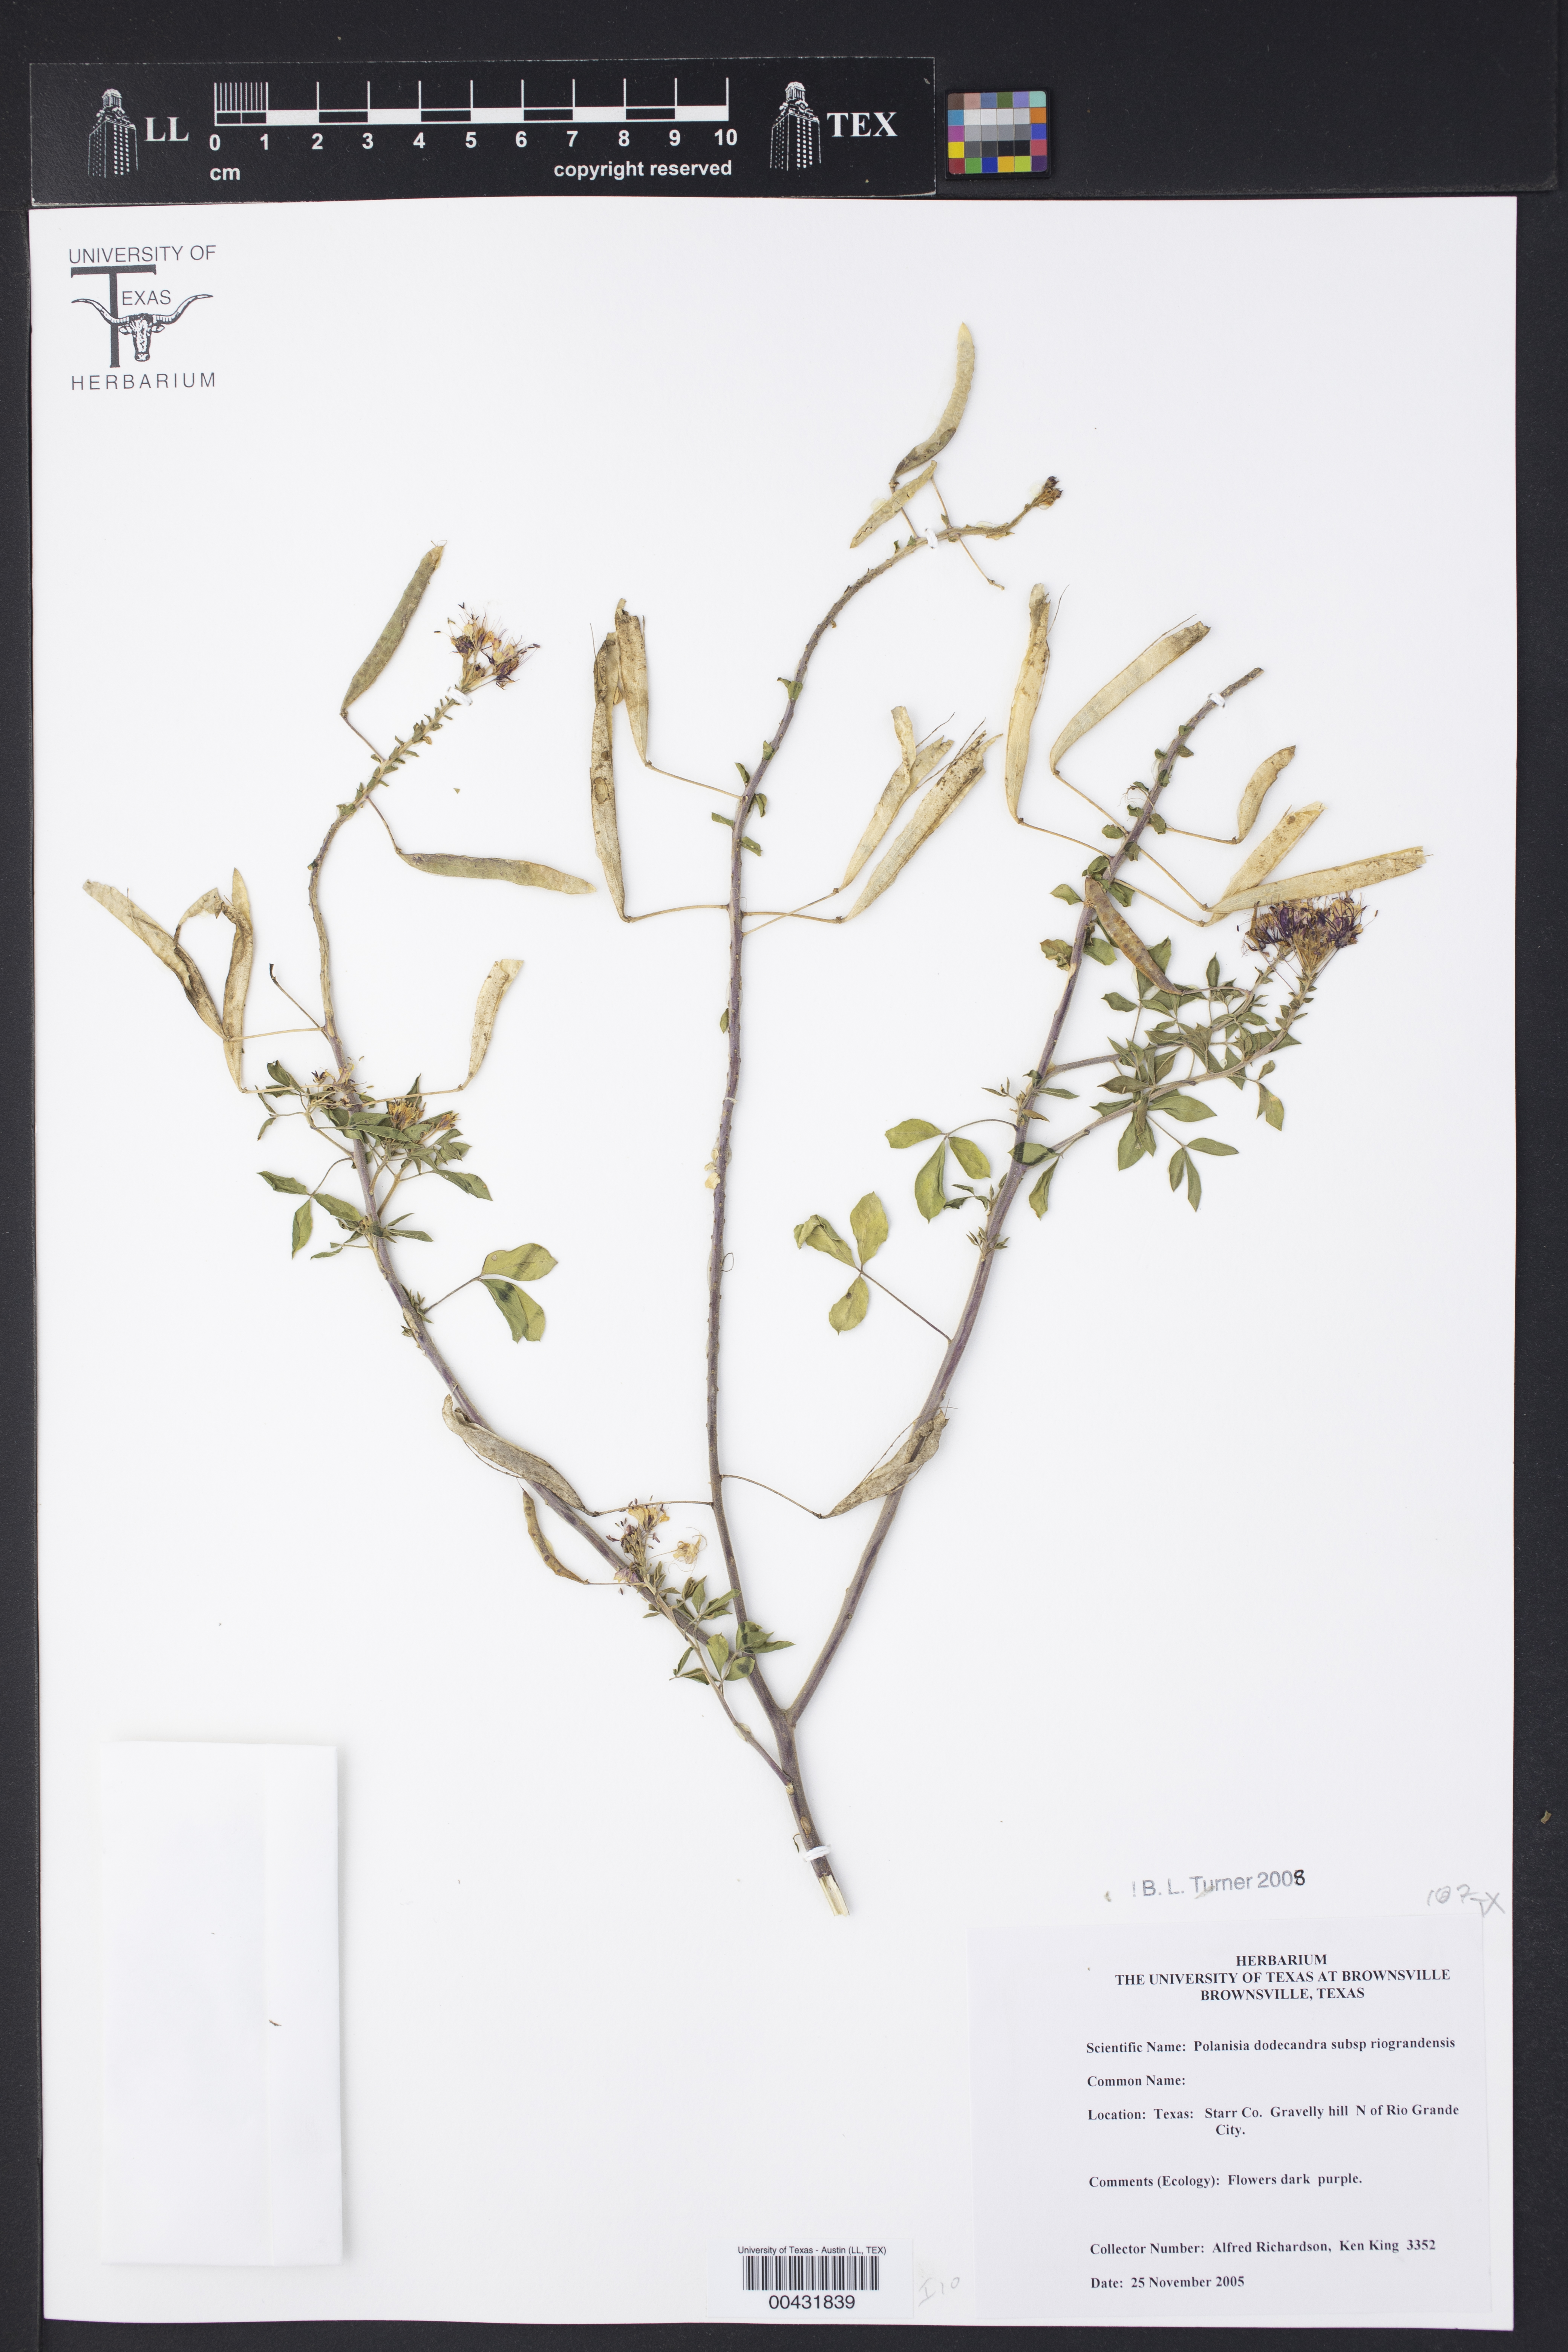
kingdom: Plantae
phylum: Tracheophyta
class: Magnoliopsida
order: Brassicales
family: Cleomaceae
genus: Polanisia
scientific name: Polanisia dodecandra
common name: Clammyweed
